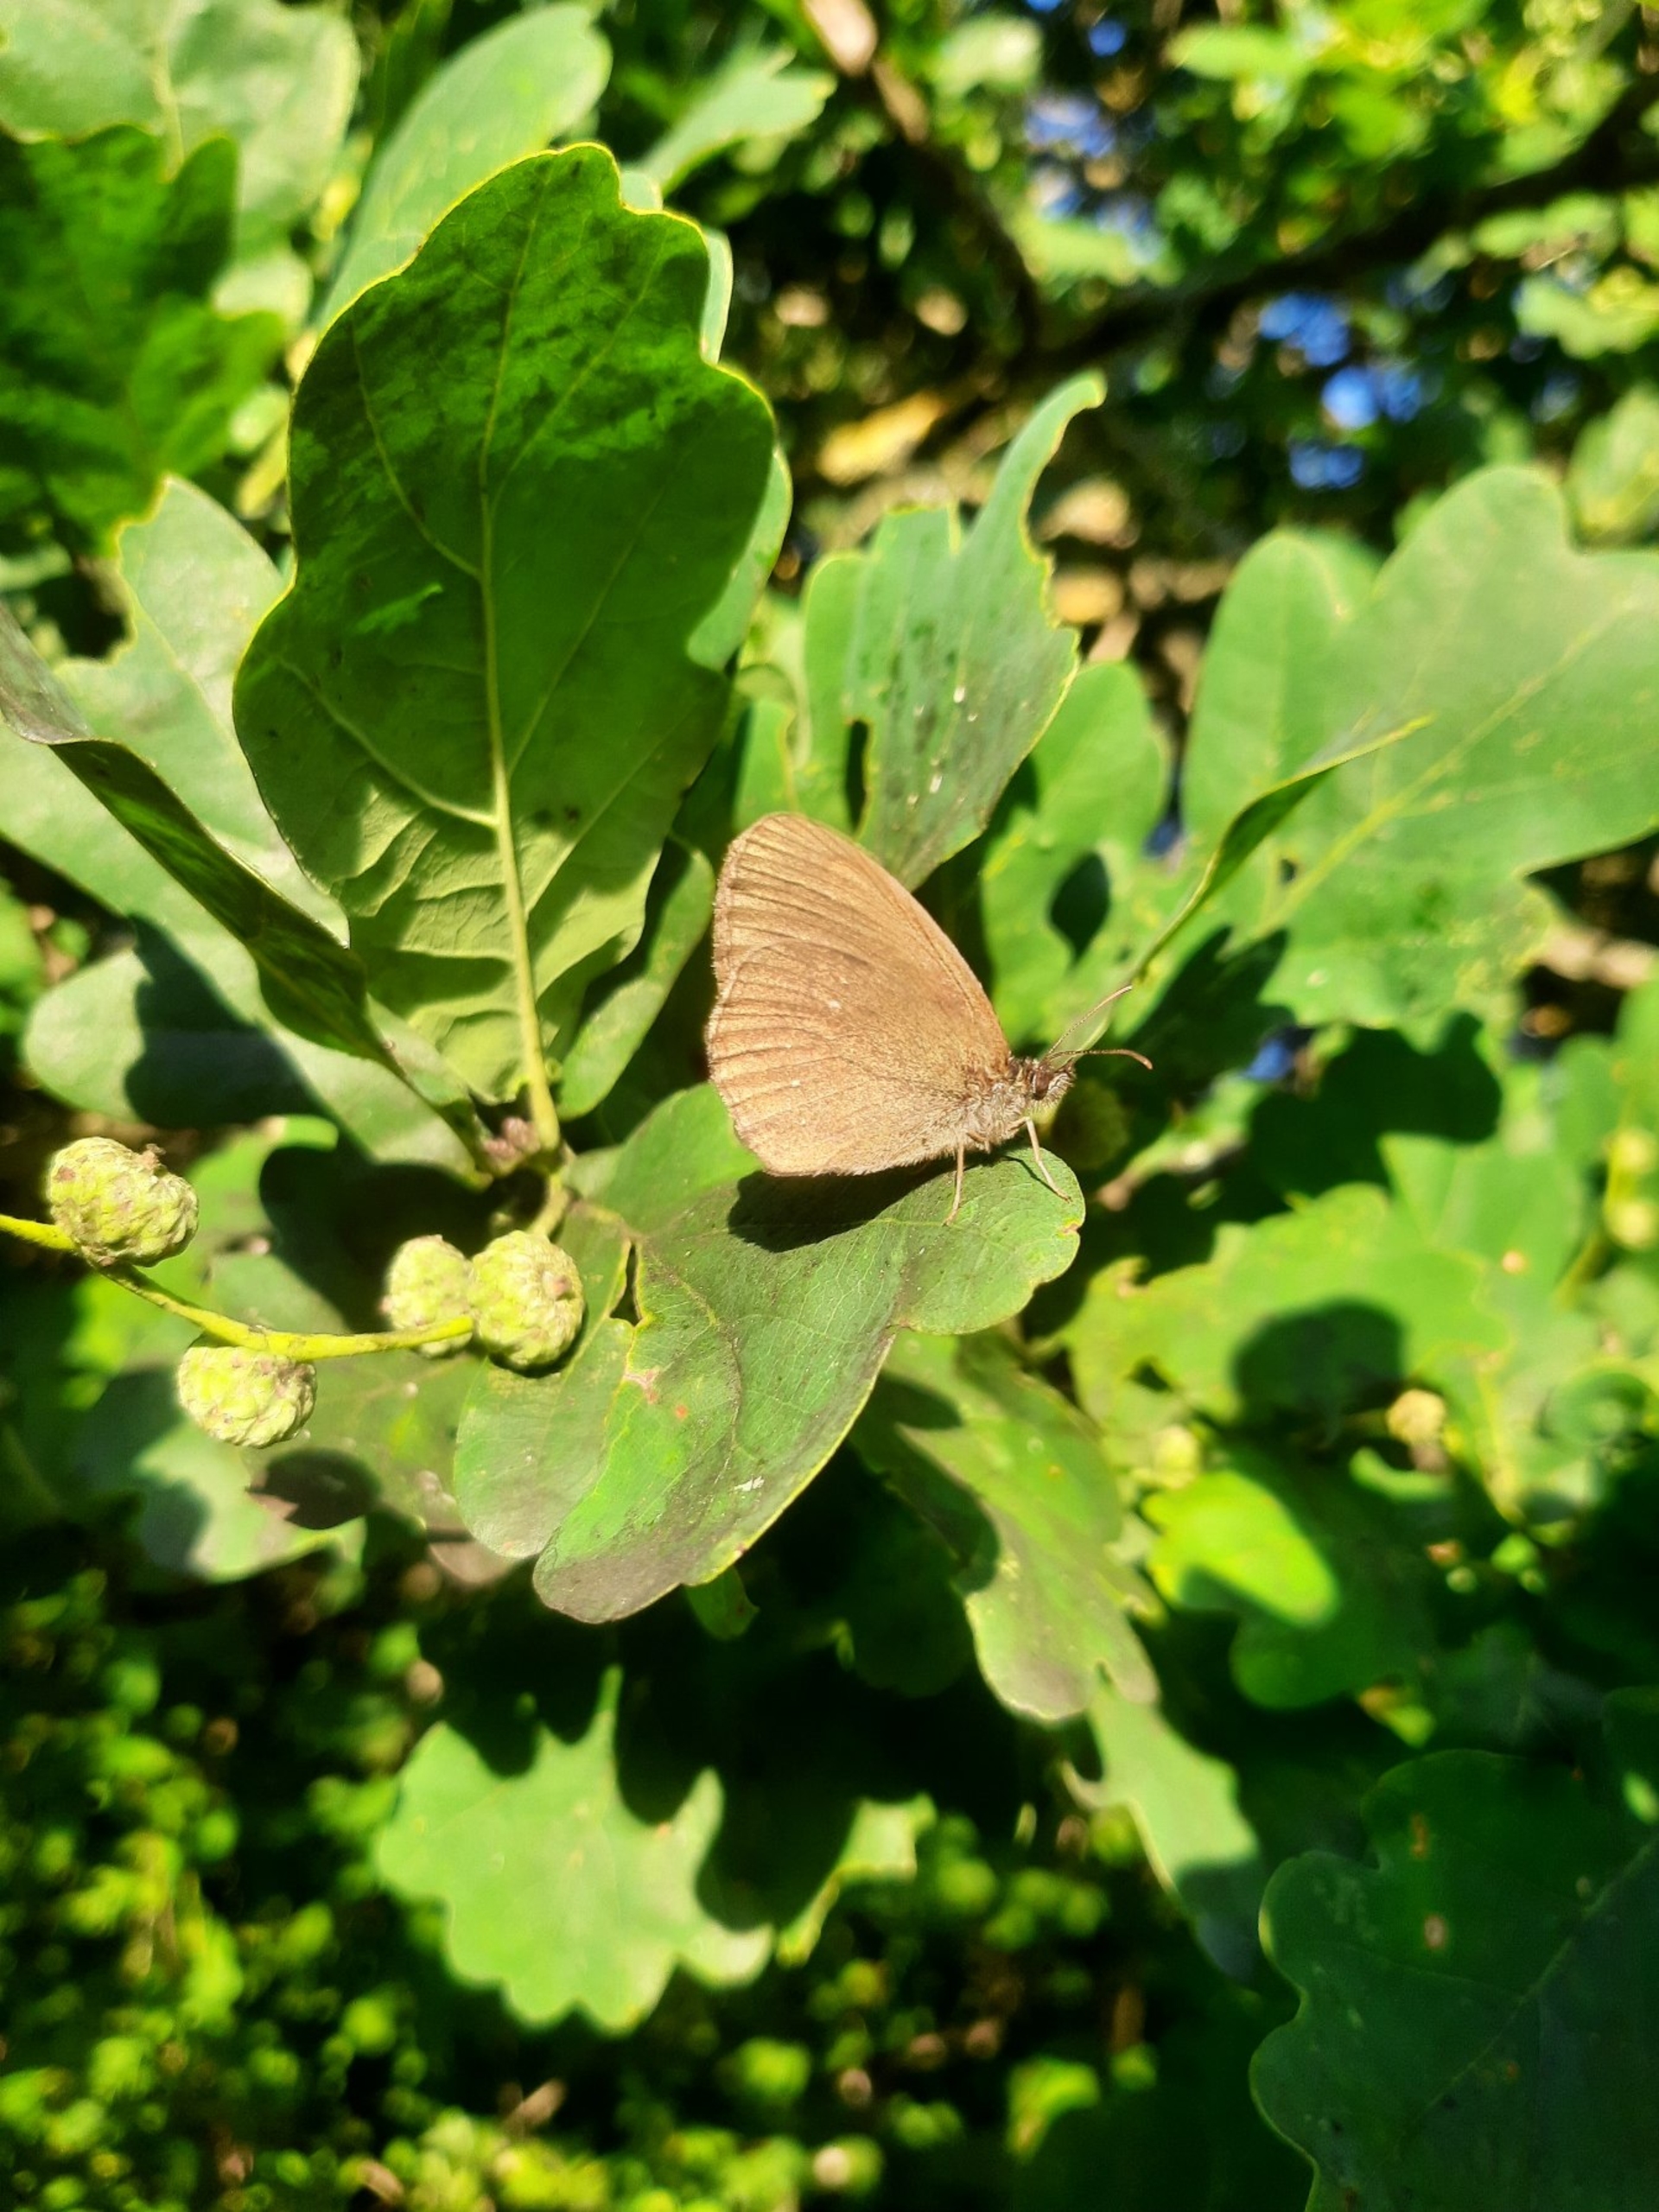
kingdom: Animalia
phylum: Arthropoda
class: Insecta
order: Lepidoptera
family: Nymphalidae
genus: Aphantopus
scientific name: Aphantopus hyperantus
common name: Engrandøje
